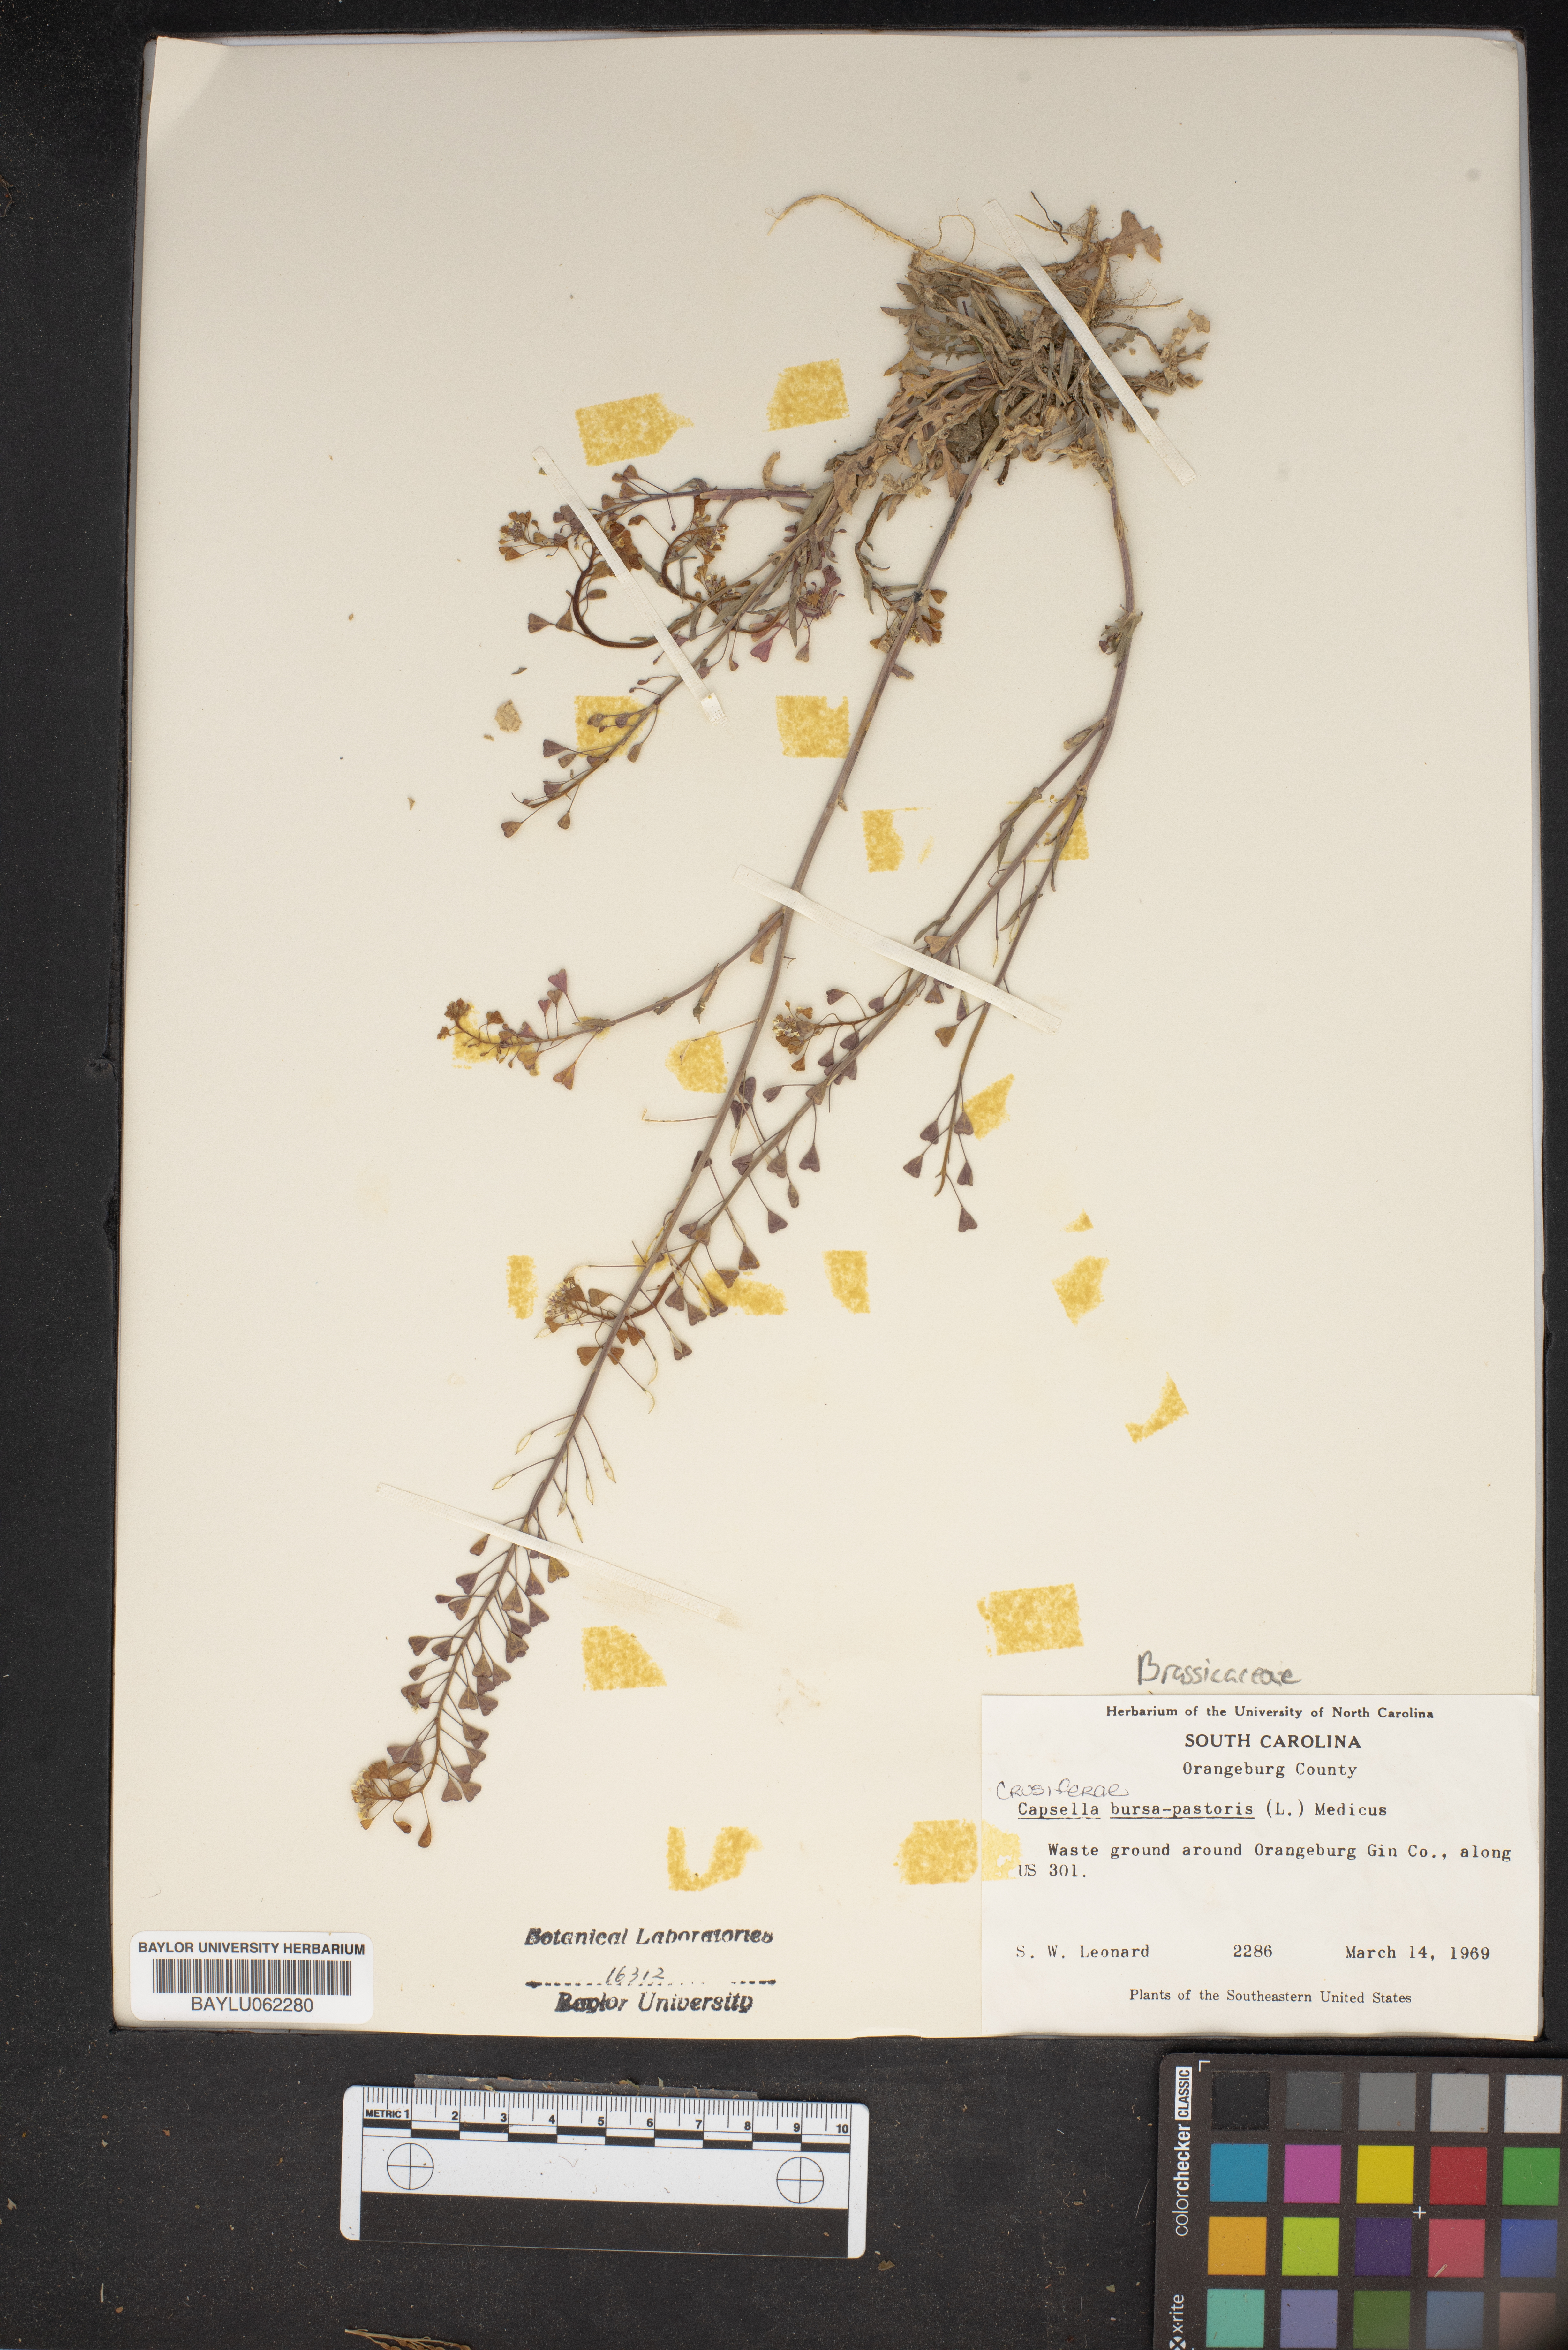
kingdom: Plantae
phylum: Tracheophyta
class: Magnoliopsida
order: Brassicales
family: Brassicaceae
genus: Capsella
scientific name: Capsella bursa-pastoris
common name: Shepherd's purse
